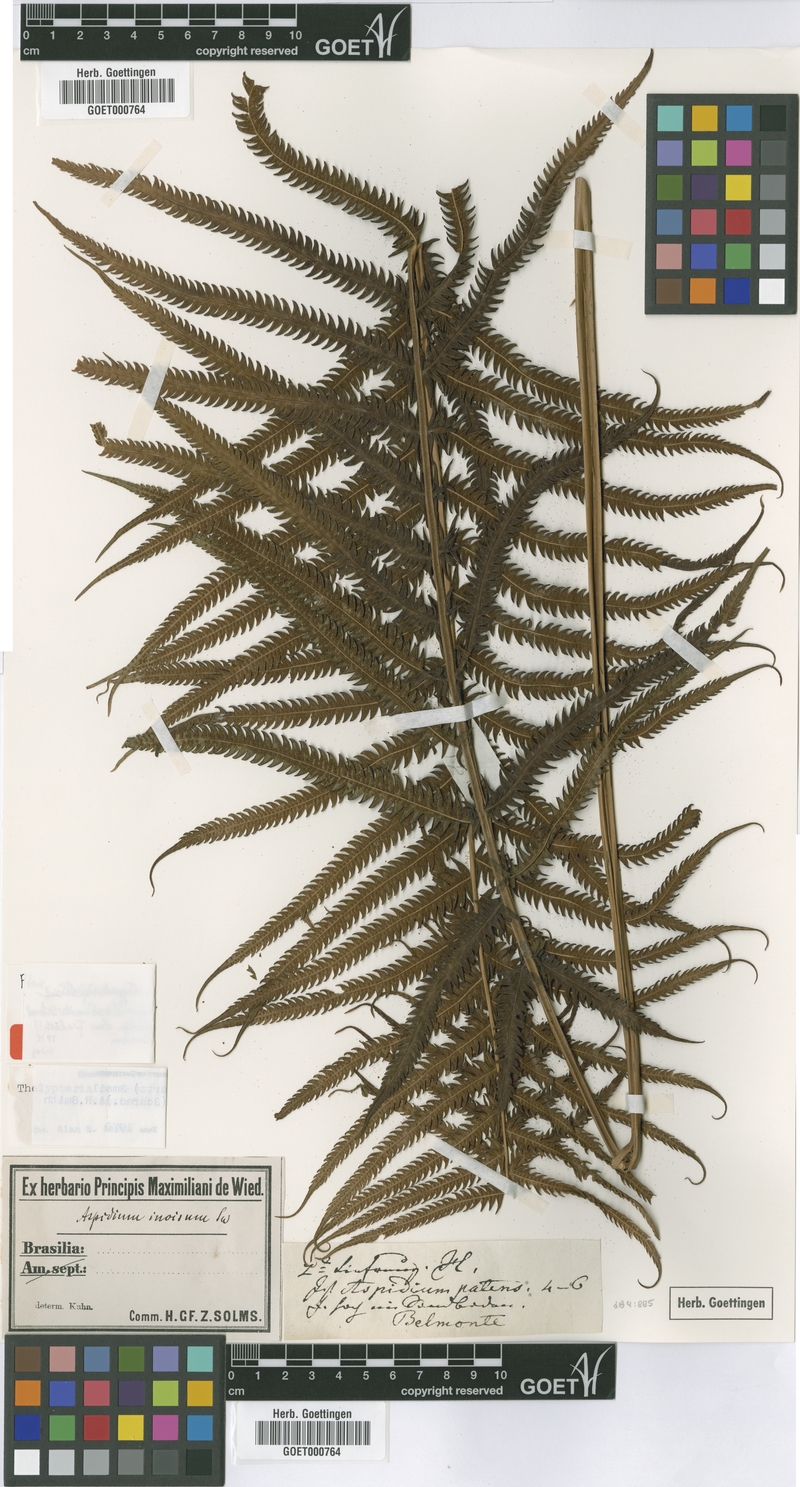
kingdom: Plantae
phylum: Tracheophyta
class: Polypodiopsida
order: Polypodiales
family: Thelypteridaceae
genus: Pelazoneuron
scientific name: Pelazoneuron patens
